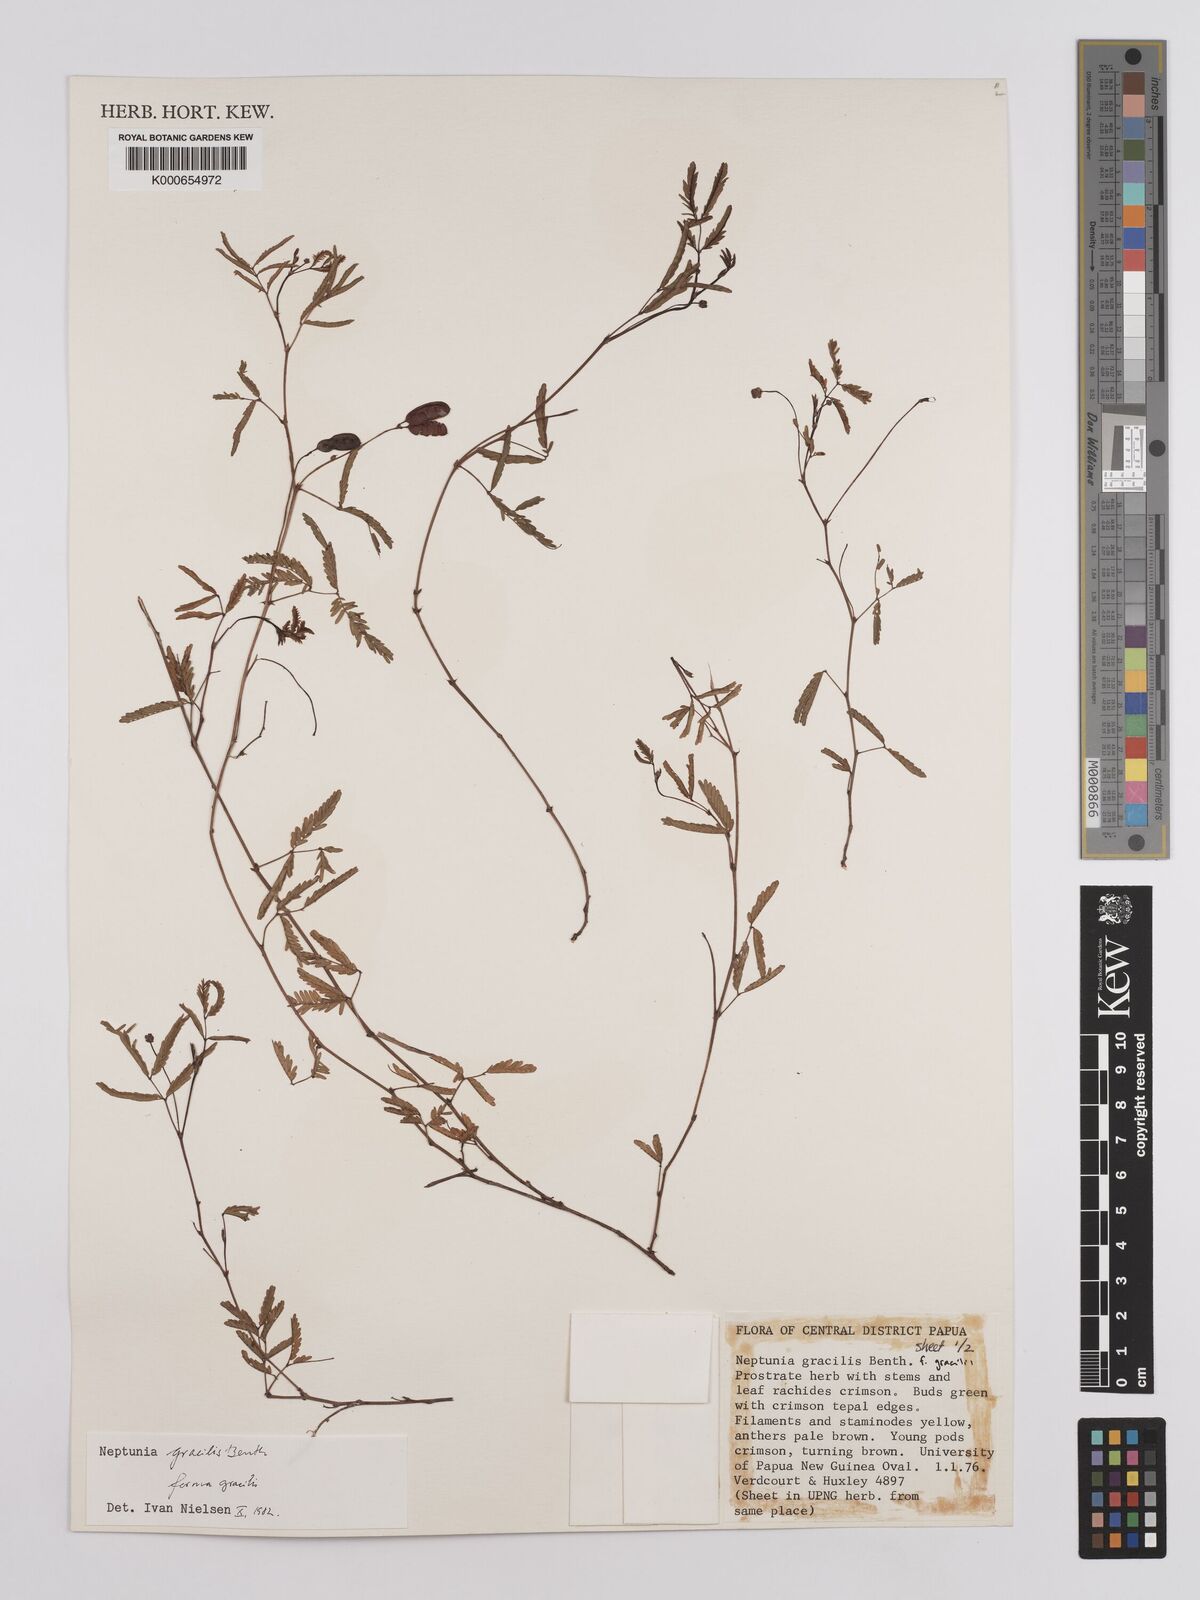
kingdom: Plantae
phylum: Tracheophyta
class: Magnoliopsida
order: Fabales
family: Fabaceae
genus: Neptunia
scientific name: Neptunia gracilis
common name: Sensitive-plant
